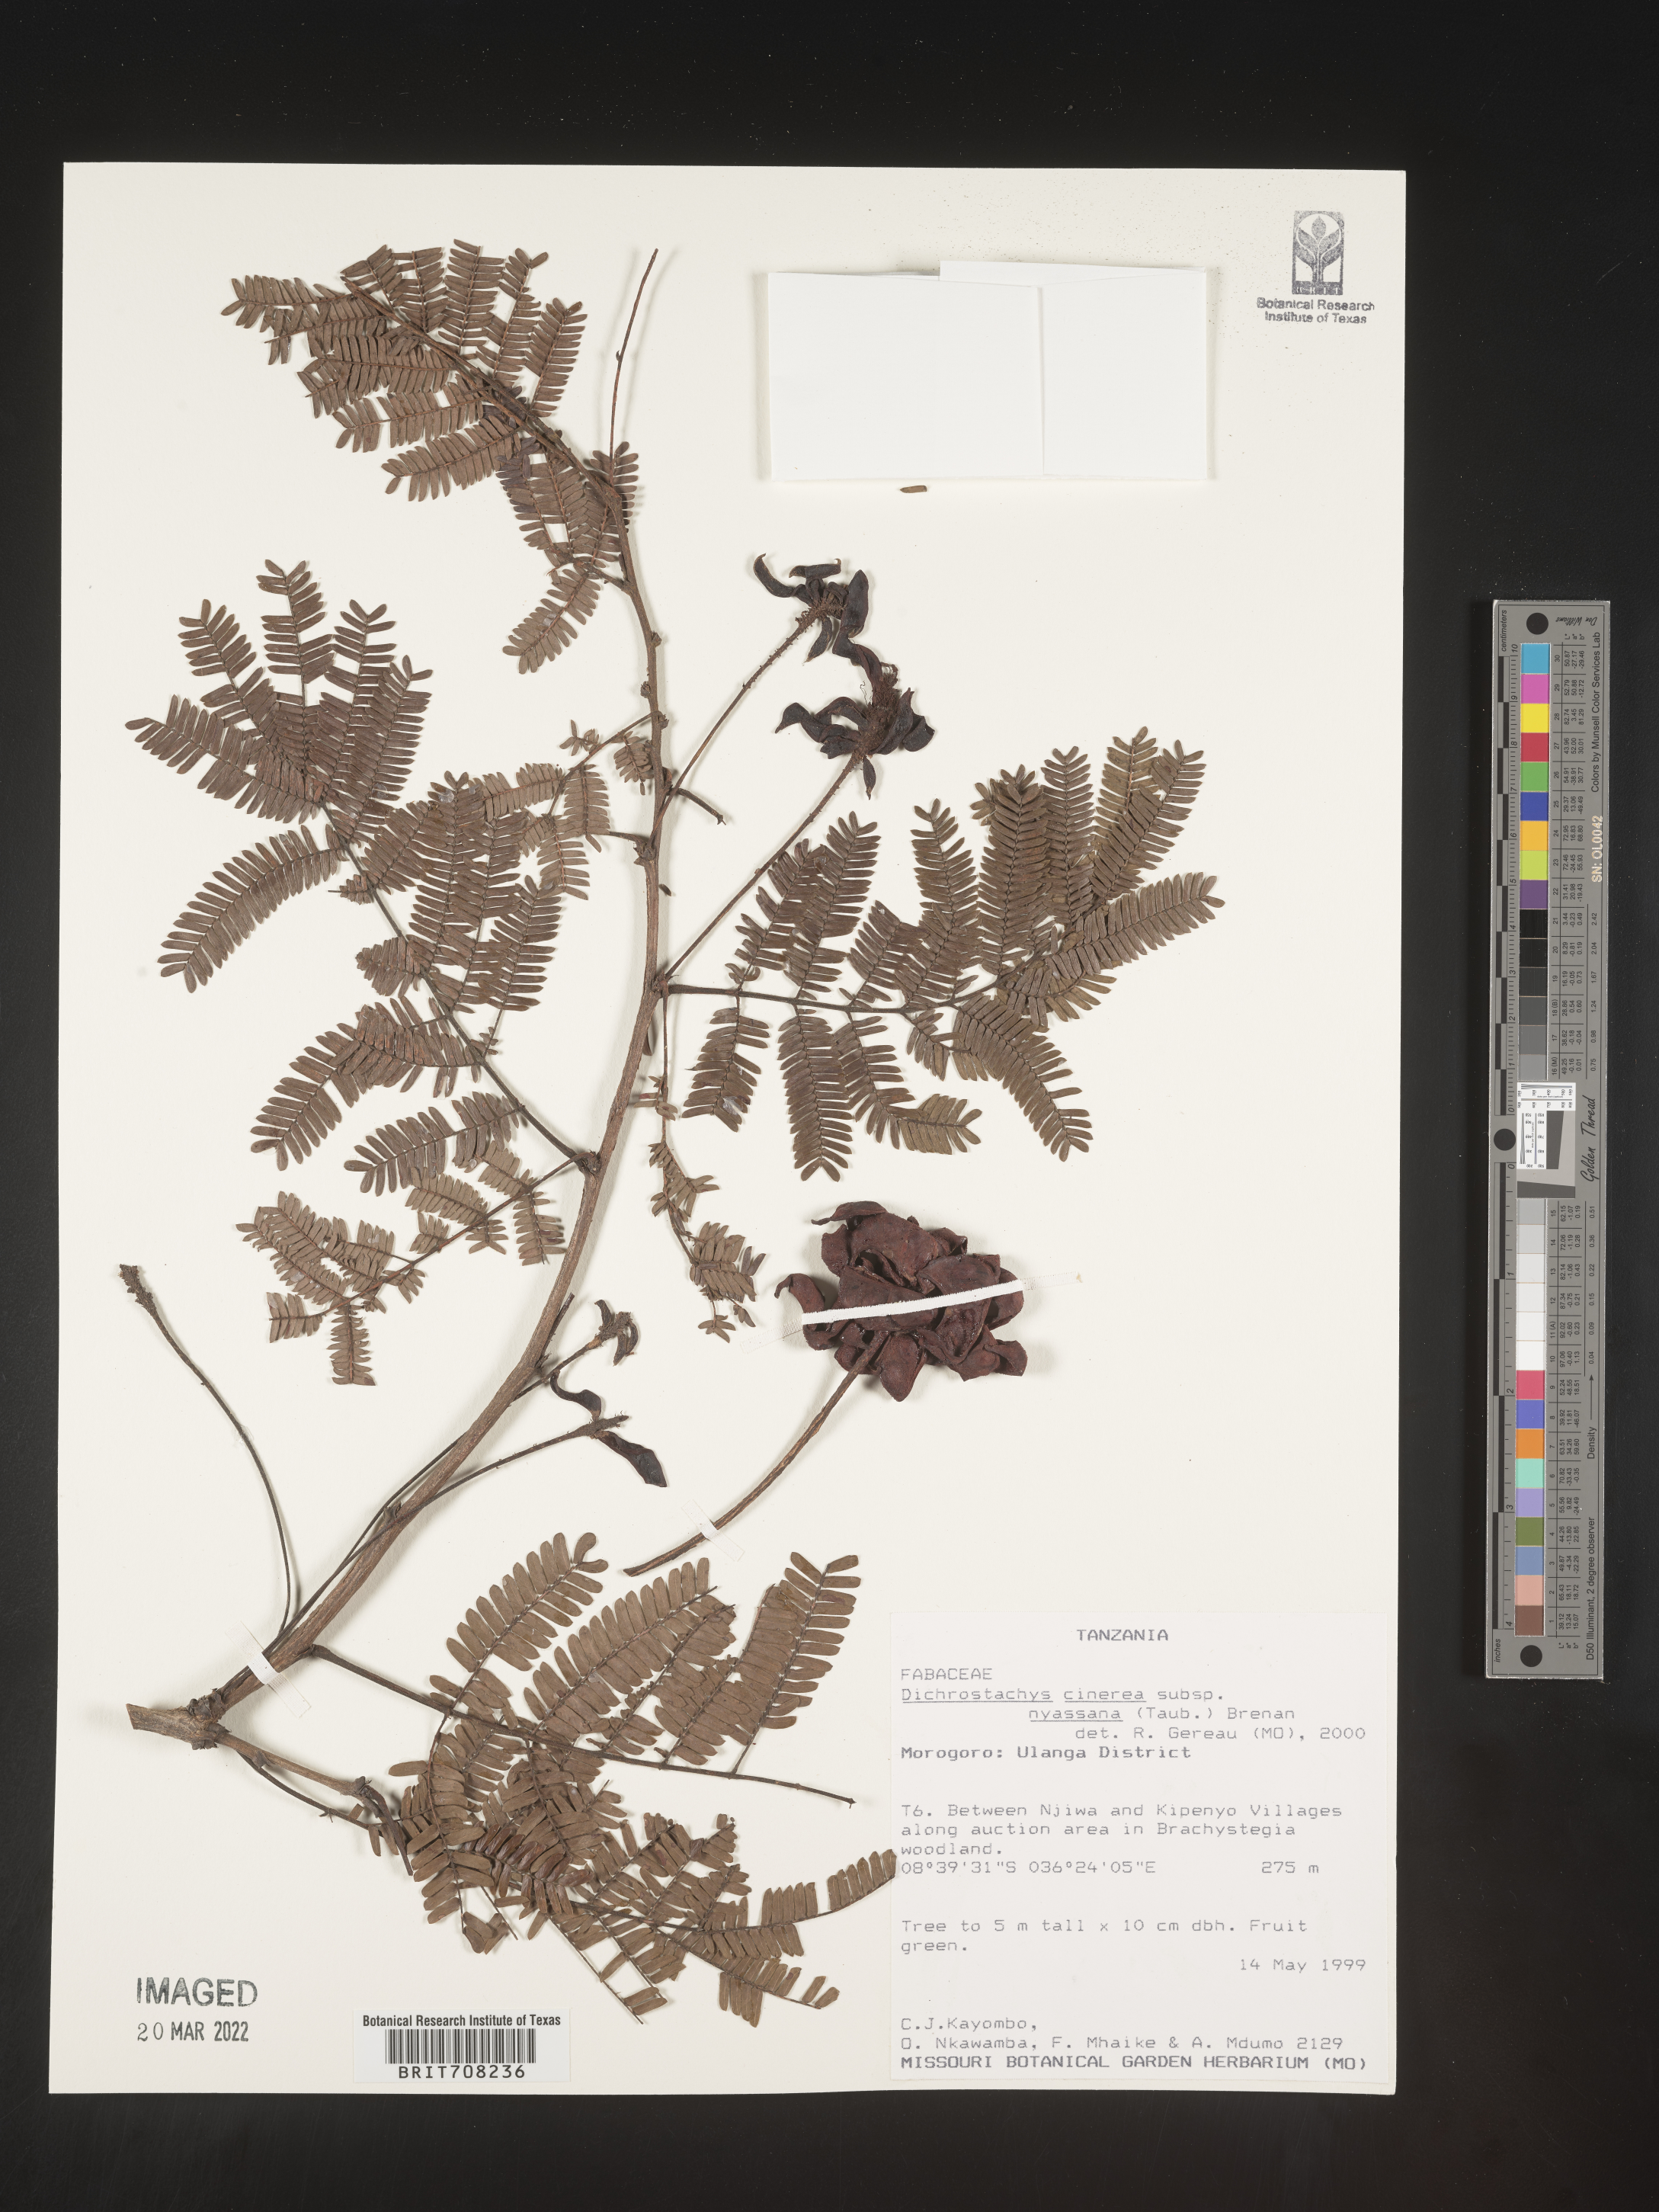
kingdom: Plantae
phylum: Tracheophyta
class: Magnoliopsida
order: Fabales
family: Fabaceae
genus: Dichrostachys
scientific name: Dichrostachys cinerea
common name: Sicklebush
